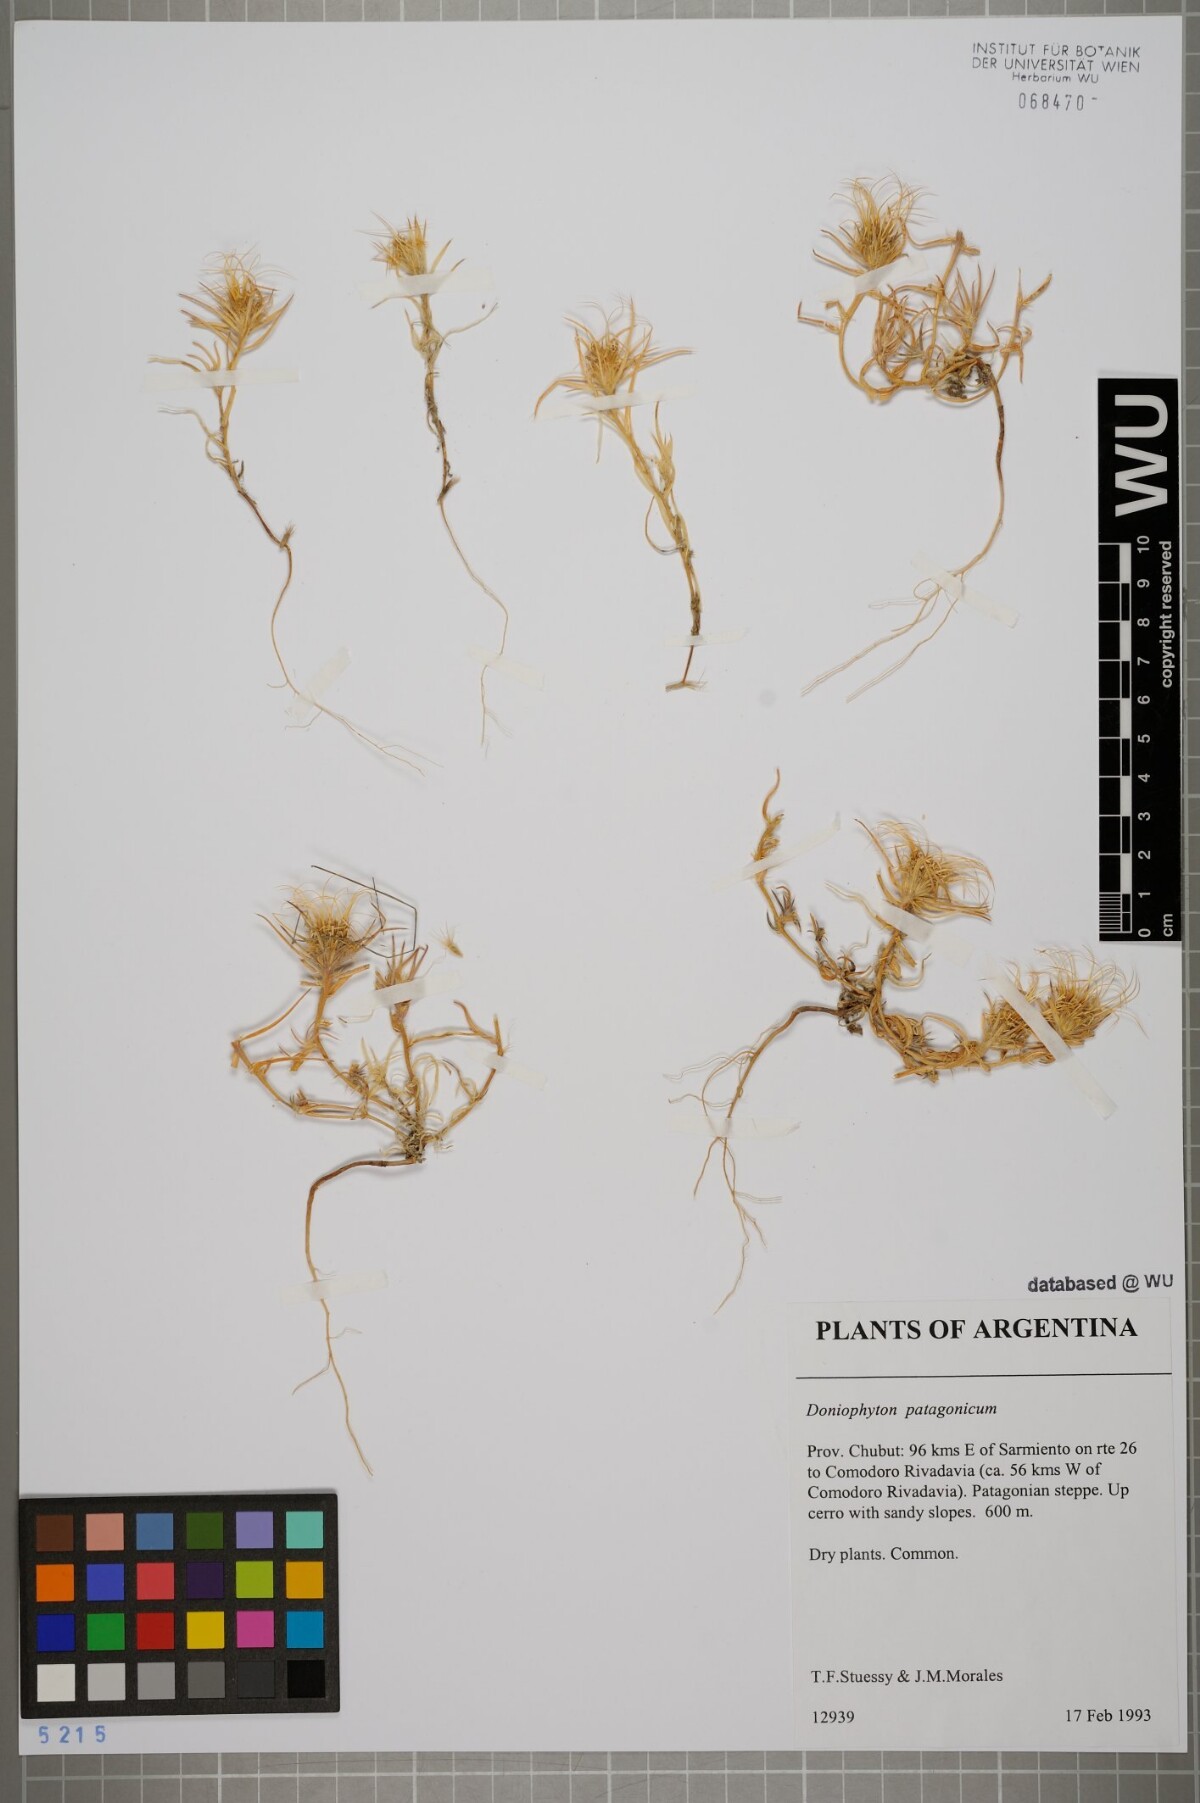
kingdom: Plantae
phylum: Tracheophyta
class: Magnoliopsida
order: Asterales
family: Asteraceae
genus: Doniophyton
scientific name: Doniophyton anomalum
